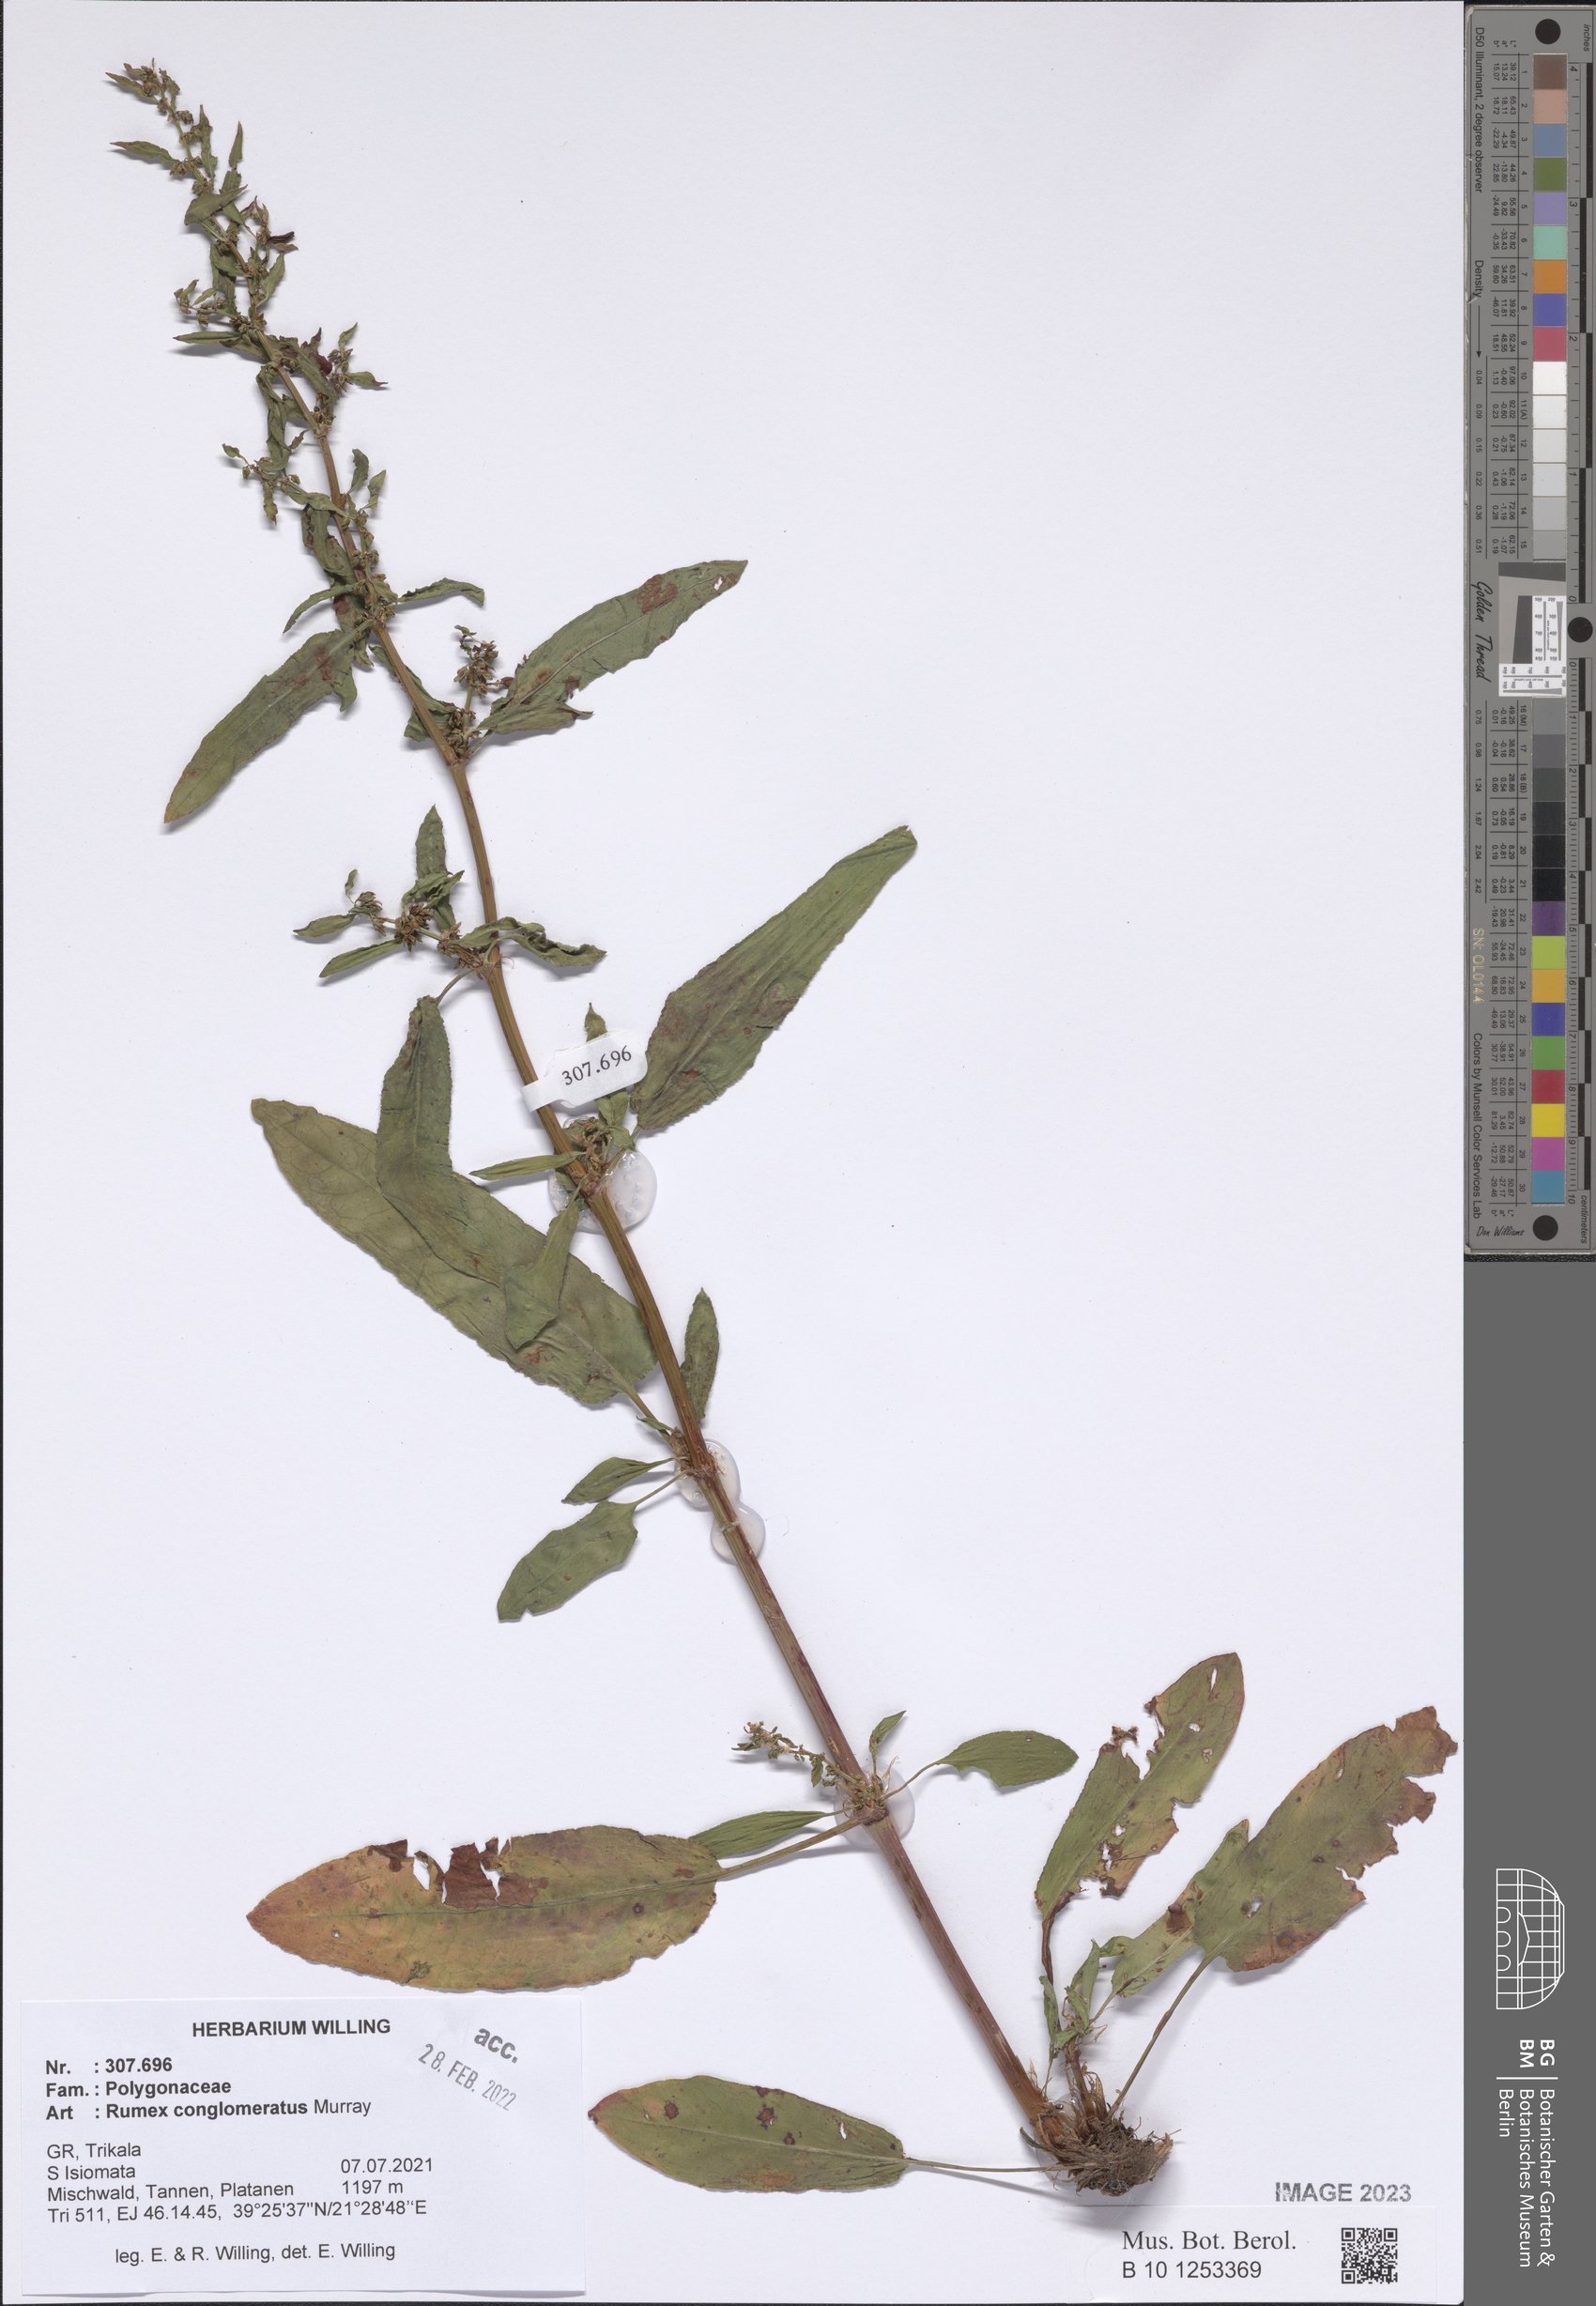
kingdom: Plantae
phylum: Tracheophyta
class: Magnoliopsida
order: Caryophyllales
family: Polygonaceae
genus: Rumex
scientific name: Rumex conglomeratus
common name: Clustered dock
